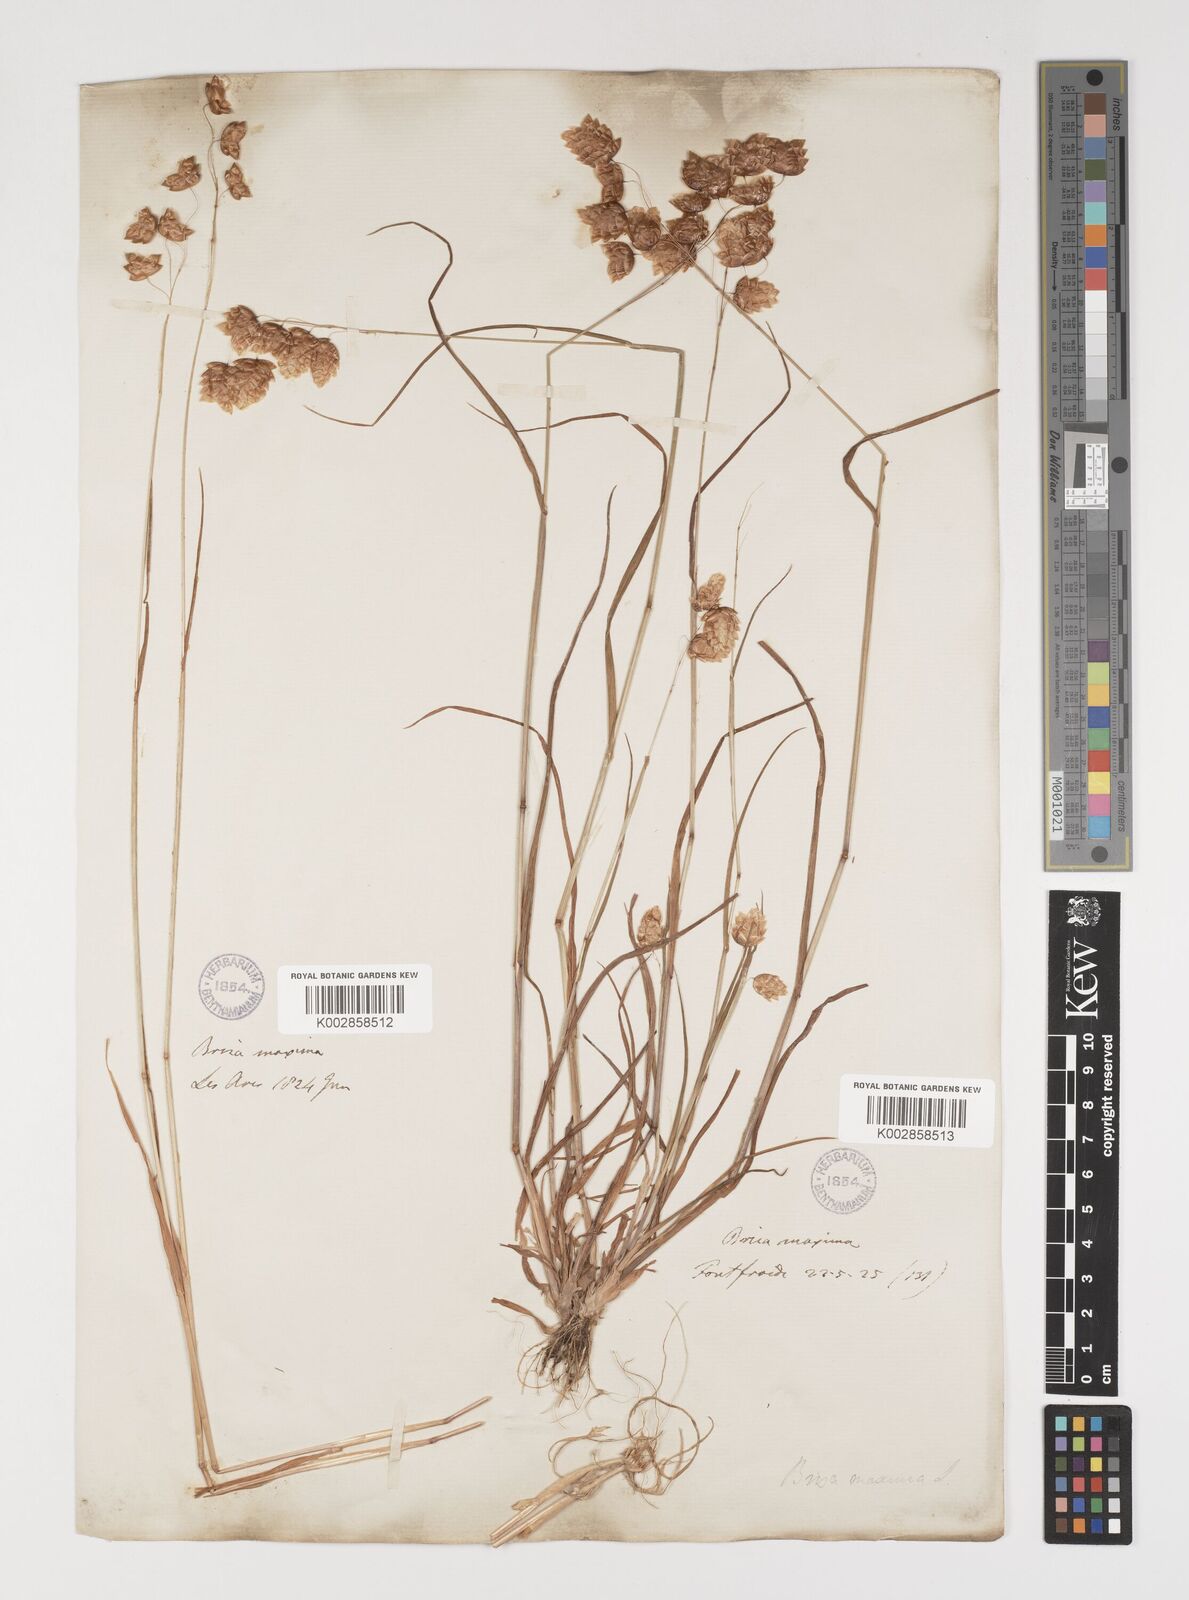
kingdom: Plantae
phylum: Tracheophyta
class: Liliopsida
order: Poales
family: Poaceae
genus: Briza
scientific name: Briza maxima
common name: Big quakinggrass
